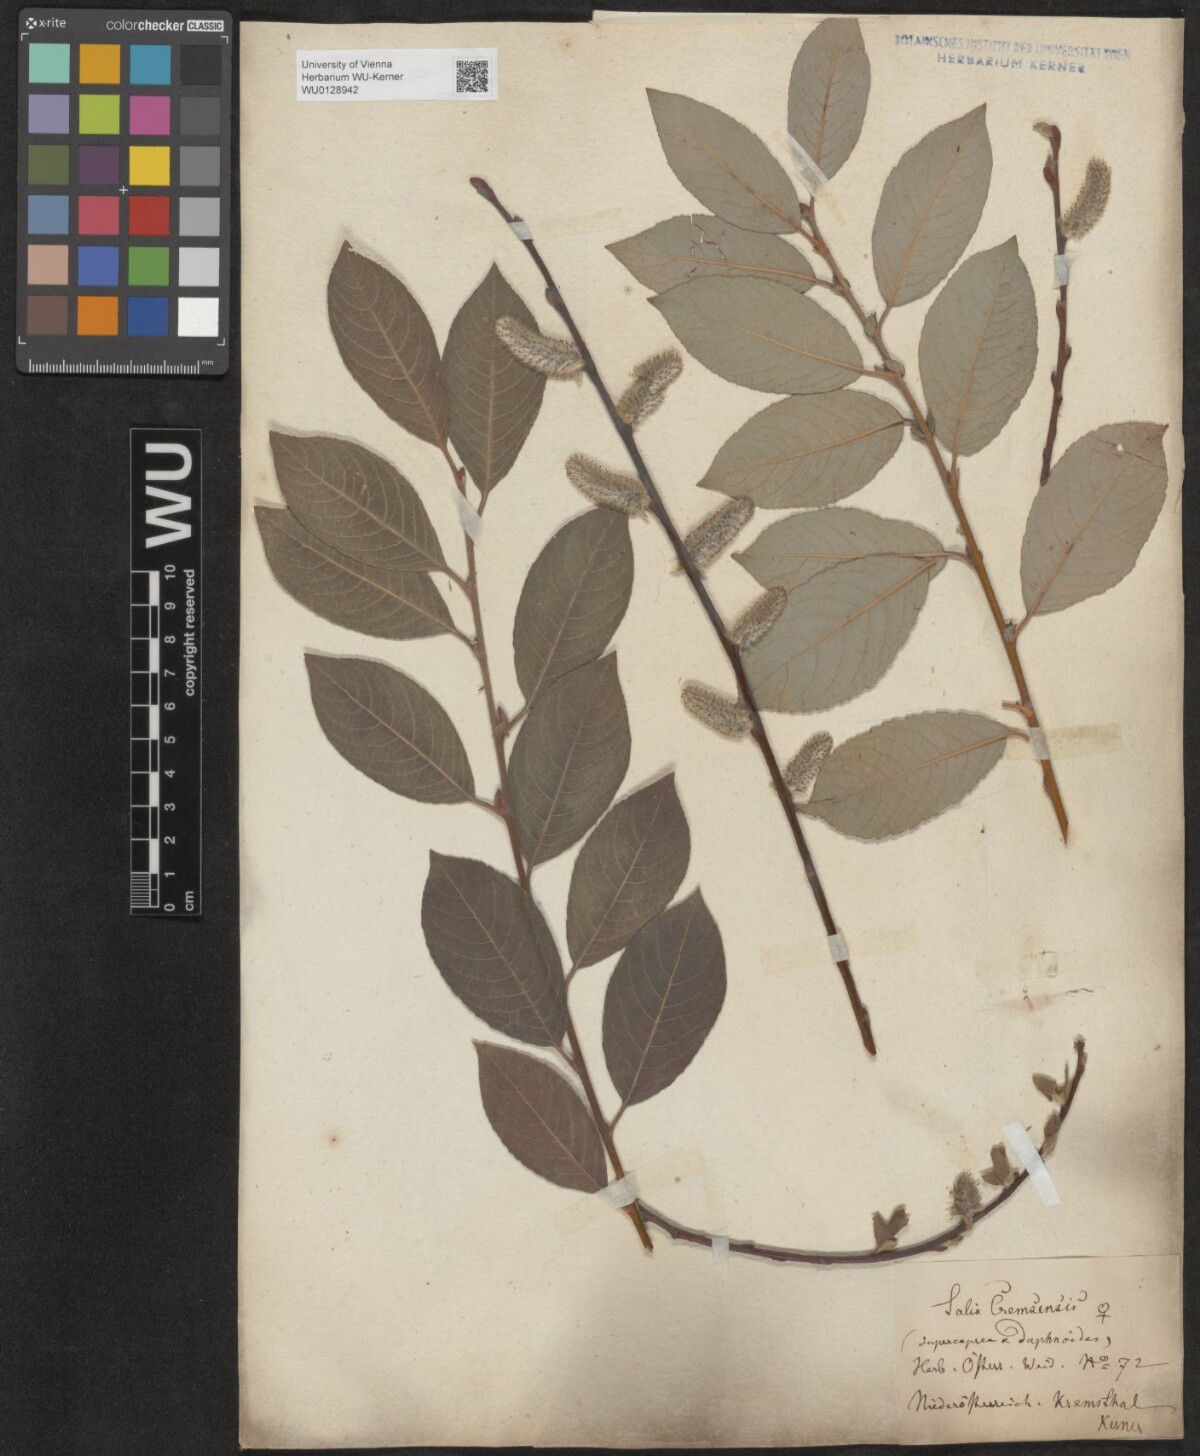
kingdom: Plantae
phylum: Tracheophyta
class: Magnoliopsida
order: Malpighiales
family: Salicaceae
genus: Salix
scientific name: Salix erdingeri
